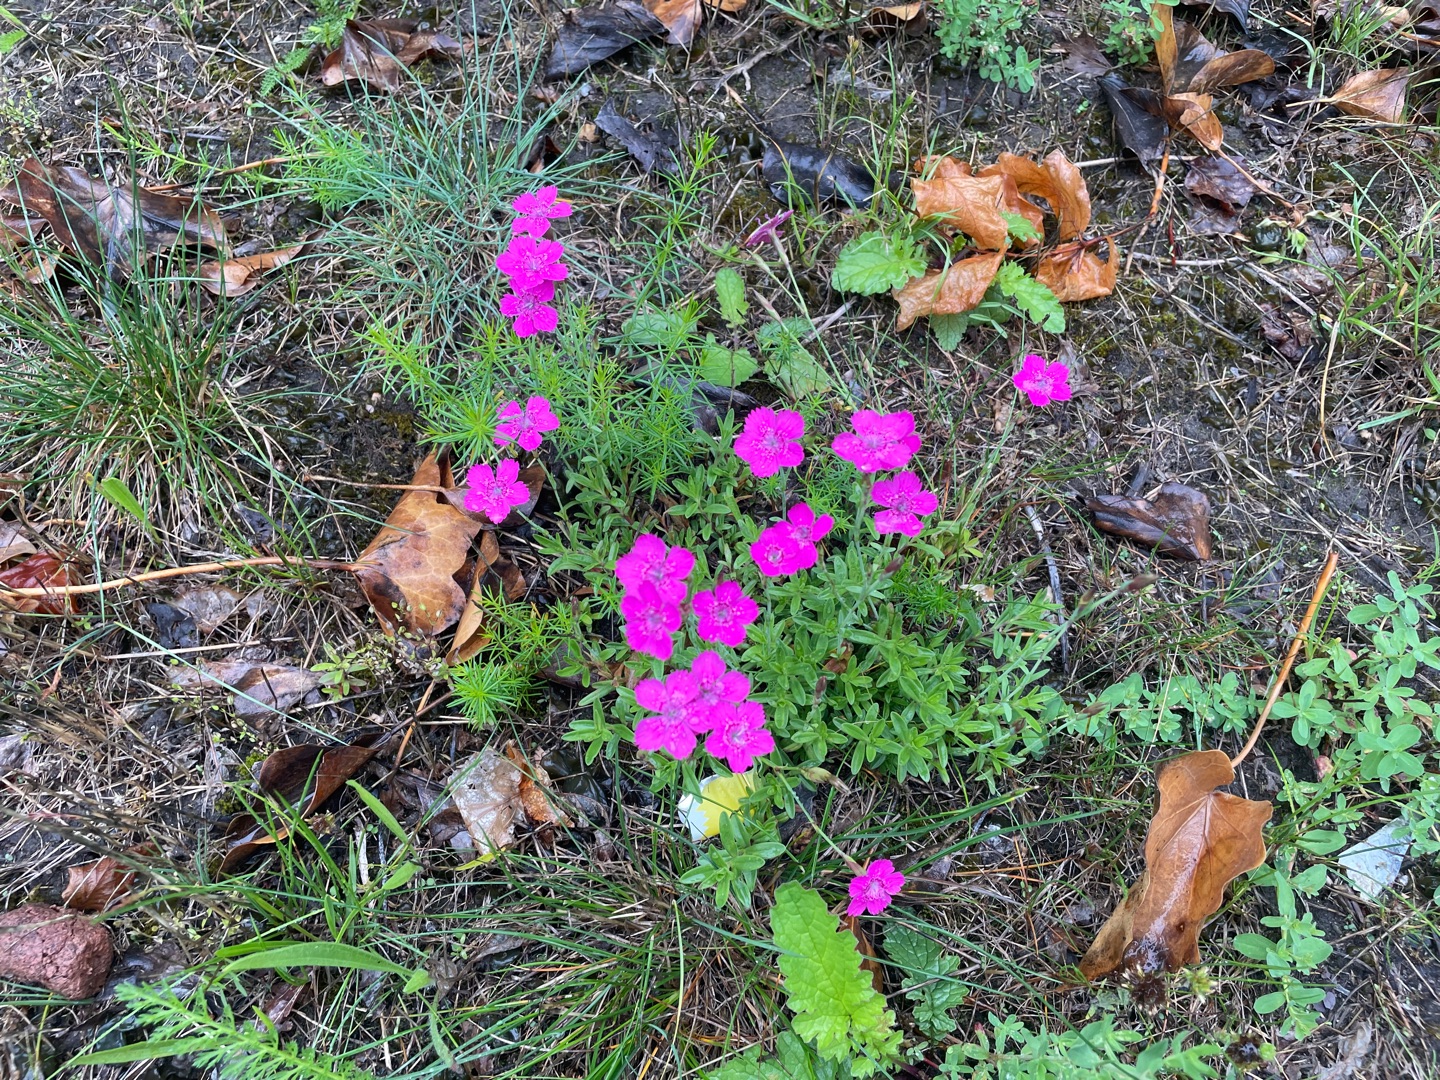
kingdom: Plantae
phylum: Tracheophyta
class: Magnoliopsida
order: Caryophyllales
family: Caryophyllaceae
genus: Dianthus
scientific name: Dianthus deltoides
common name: Bakke-nellike
